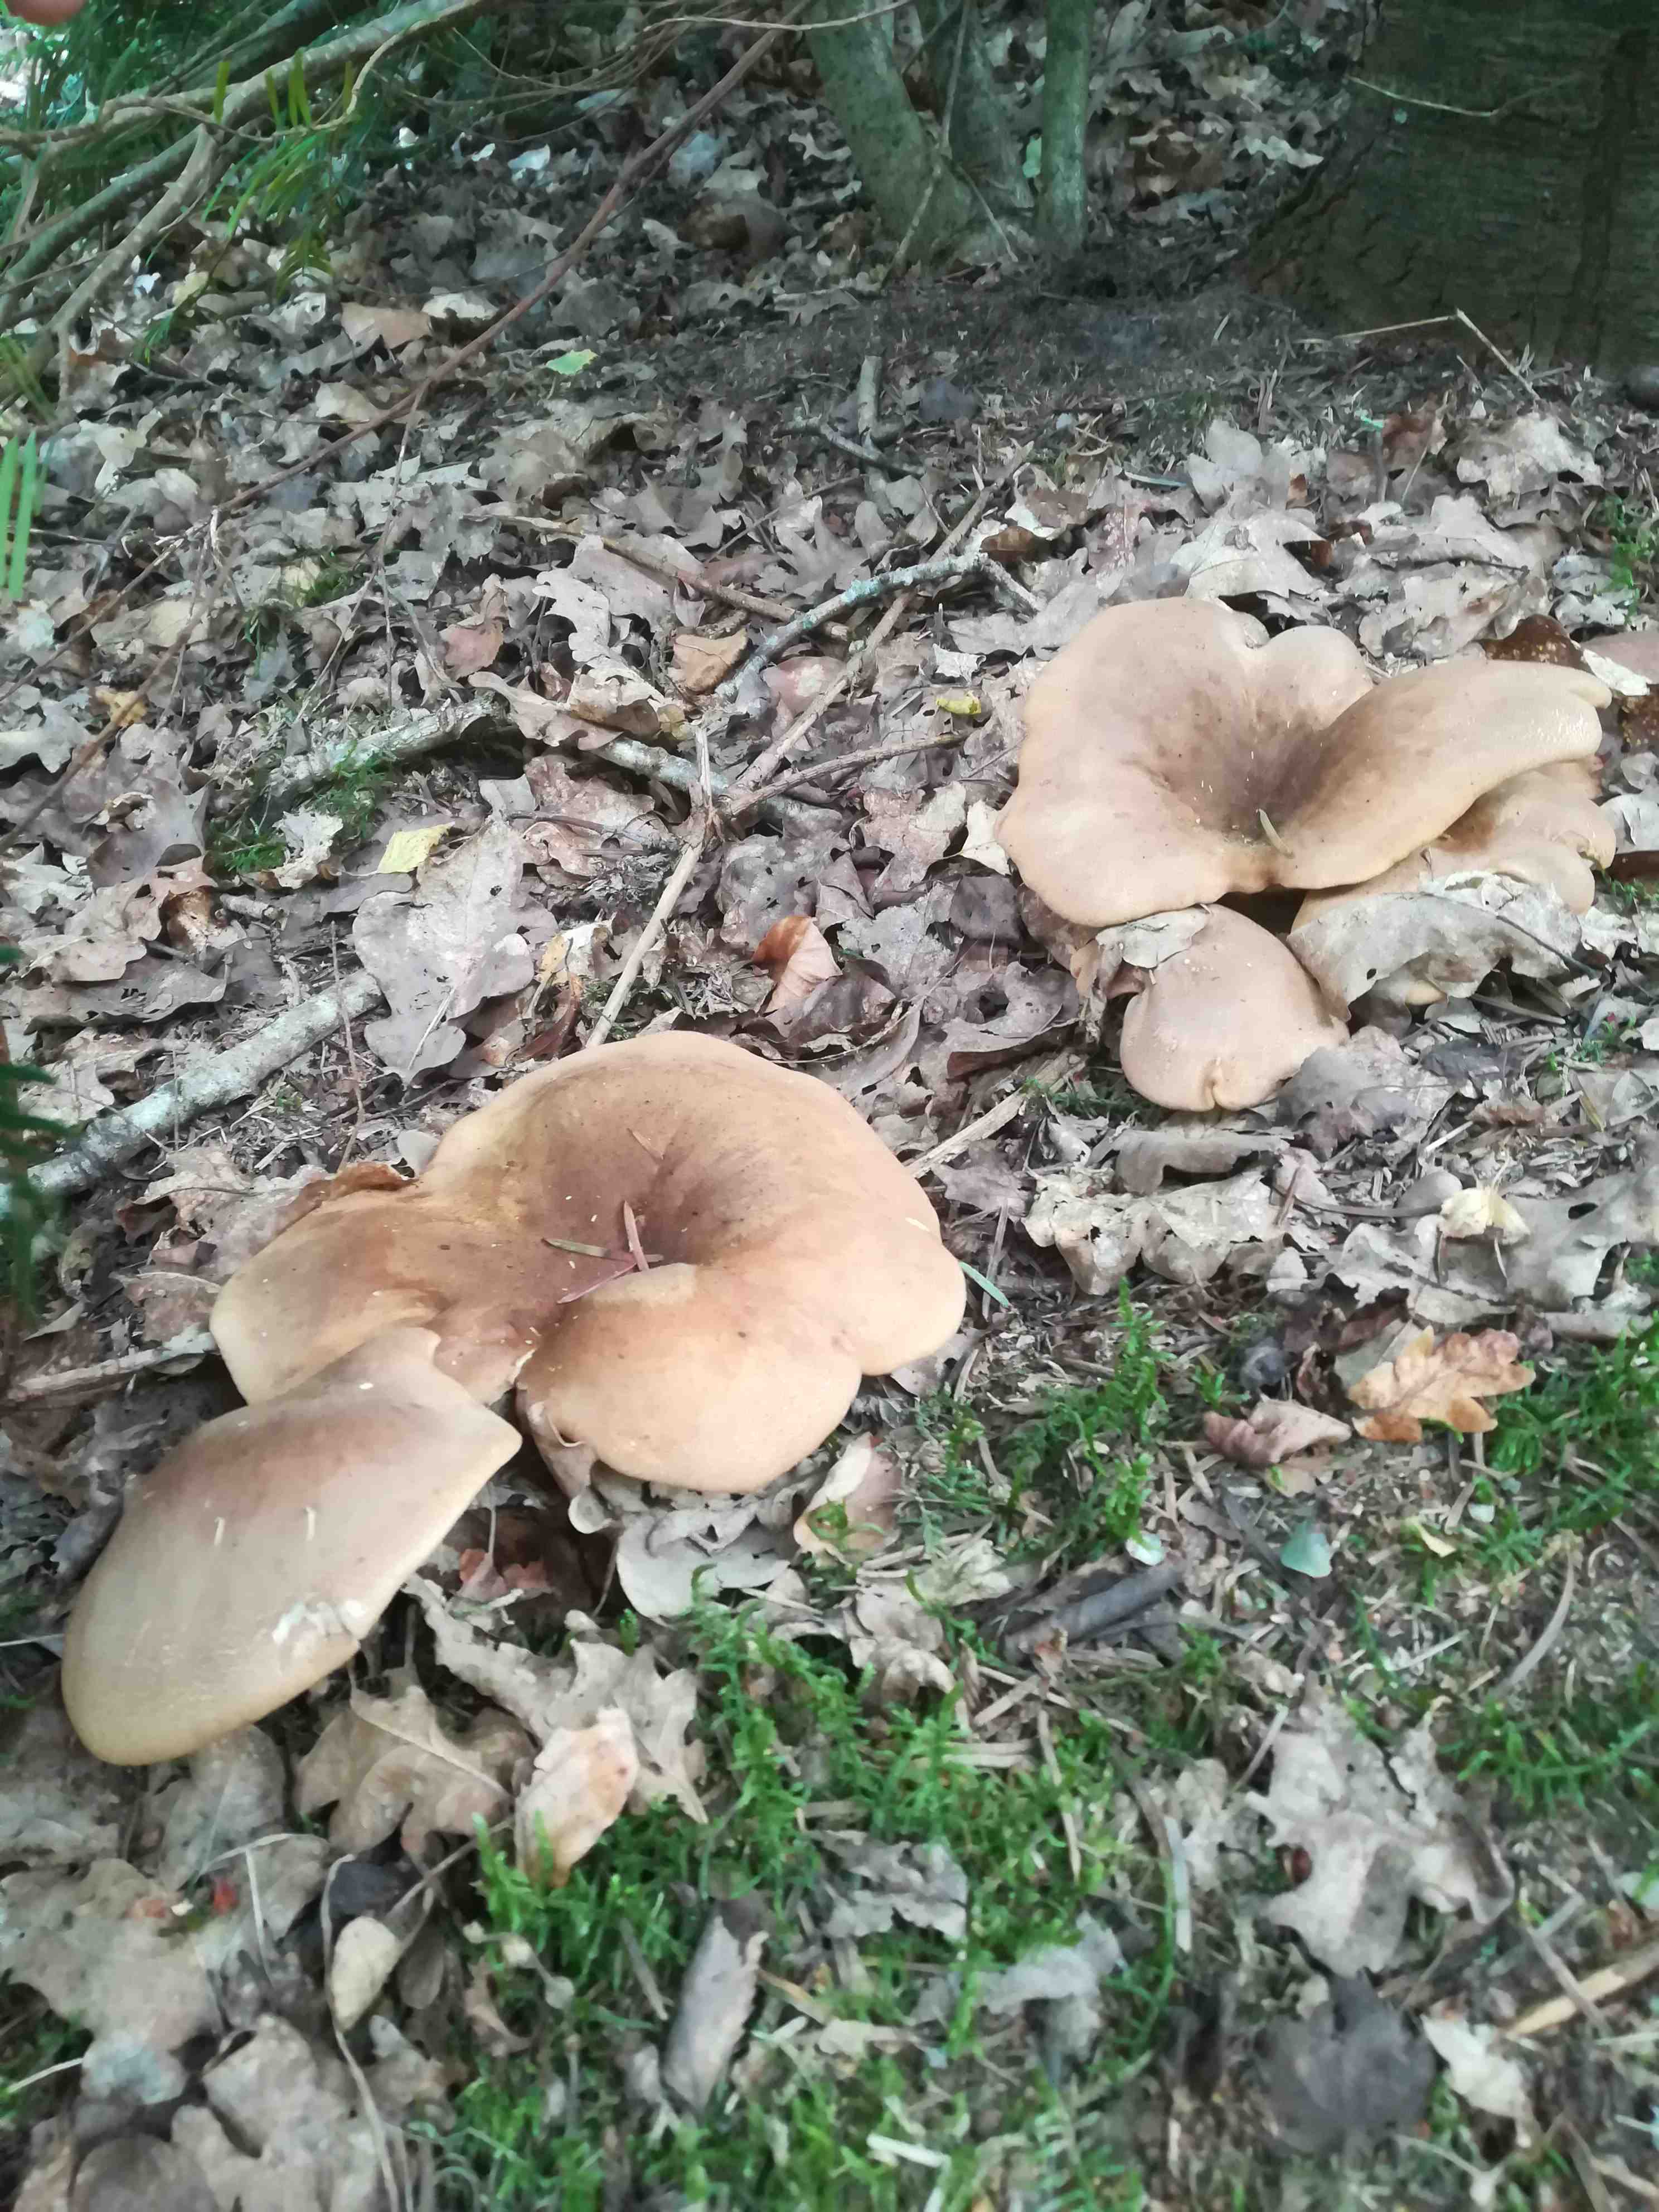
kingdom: Fungi
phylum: Basidiomycota
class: Agaricomycetes
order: Boletales
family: Tapinellaceae
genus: Tapinella
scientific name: Tapinella atrotomentosa
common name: sortfiltet viftesvamp
